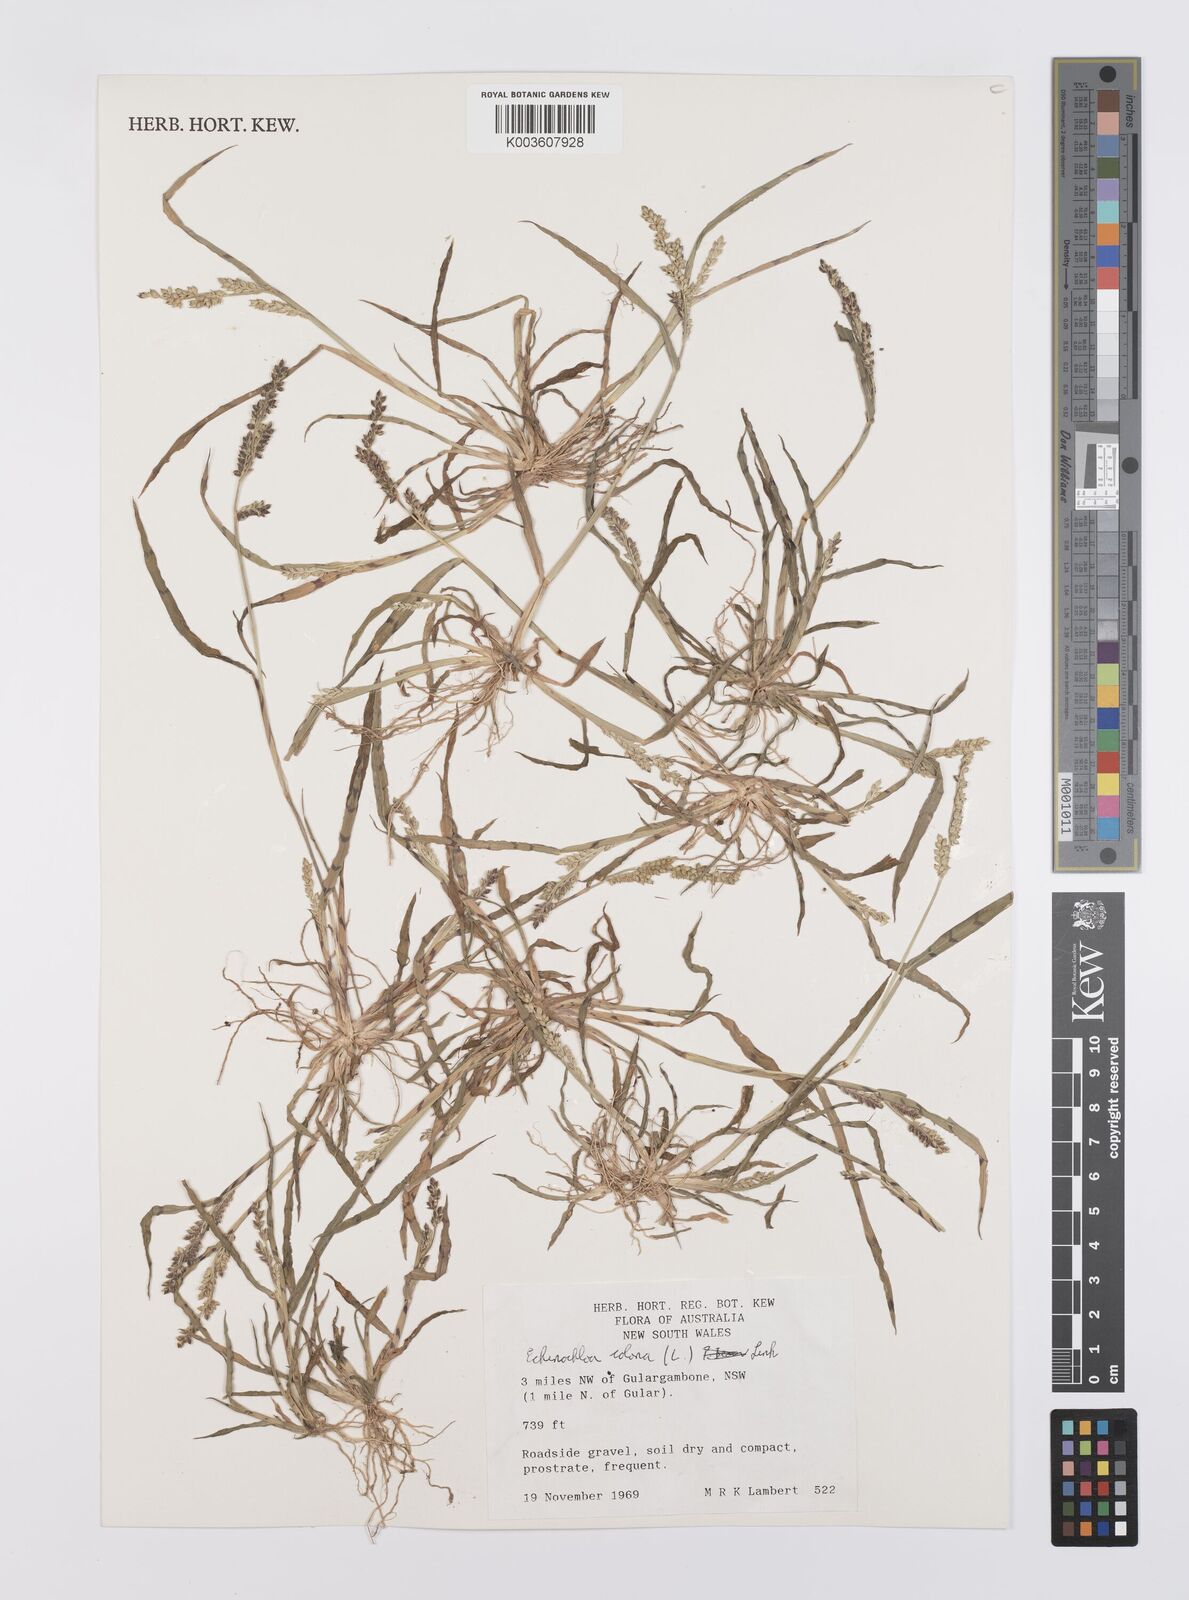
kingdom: Plantae
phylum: Tracheophyta
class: Liliopsida
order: Poales
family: Poaceae
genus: Echinochloa
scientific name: Echinochloa colonum
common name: Jungle rice
